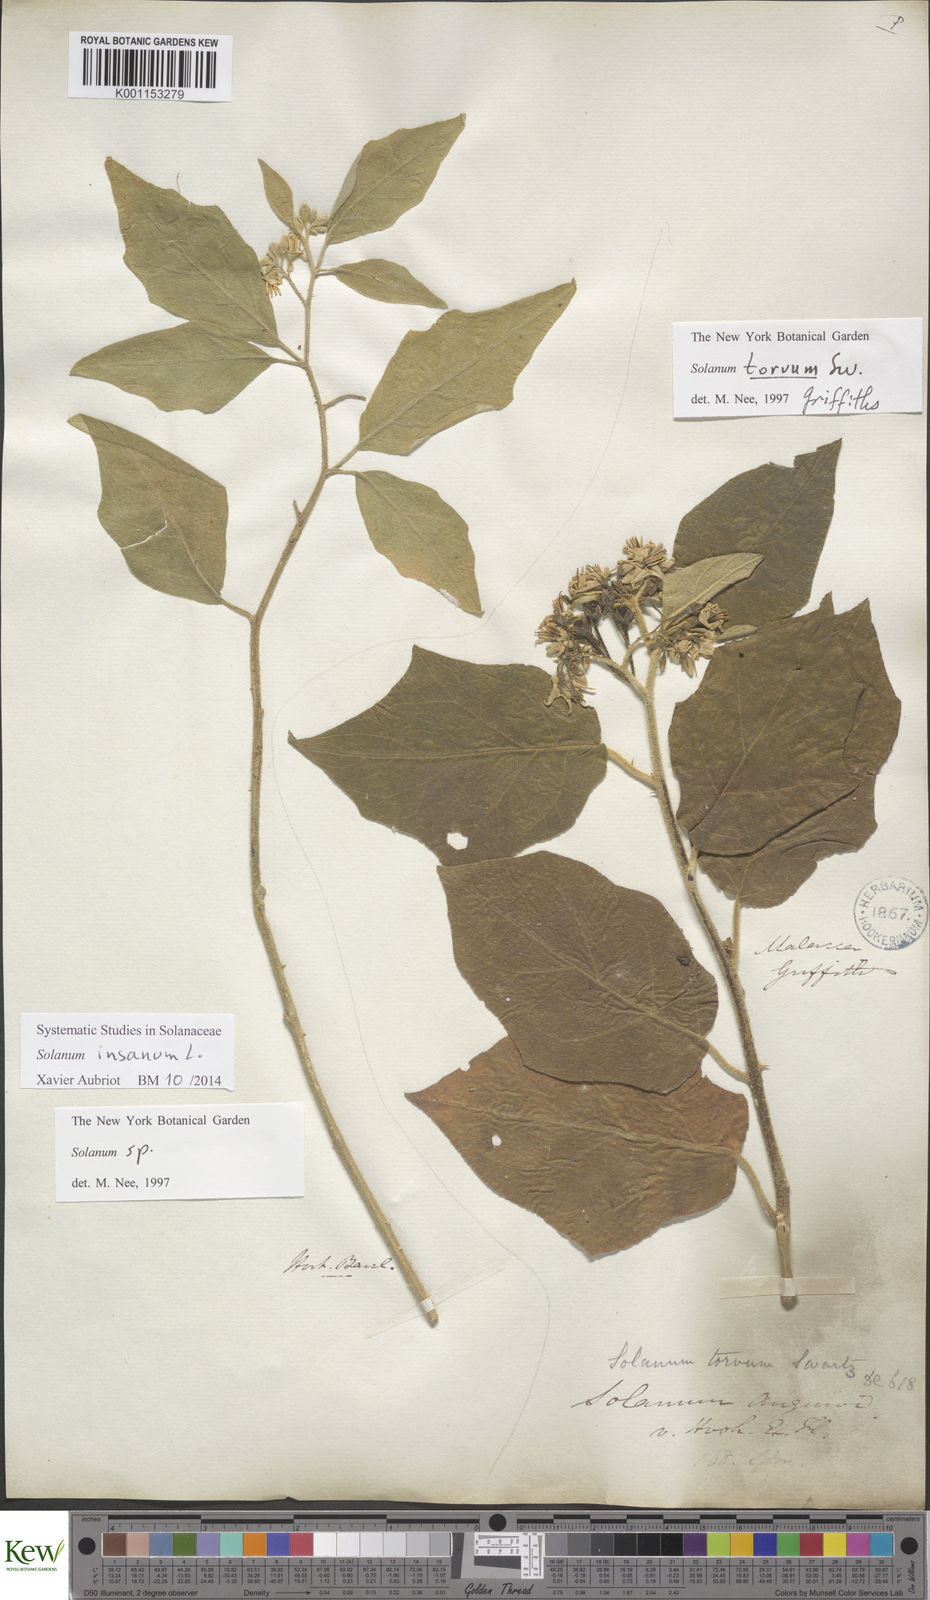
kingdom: Plantae
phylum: Tracheophyta
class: Magnoliopsida
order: Solanales
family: Solanaceae
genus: Solanum
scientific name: Solanum torvum
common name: Turkey berry
